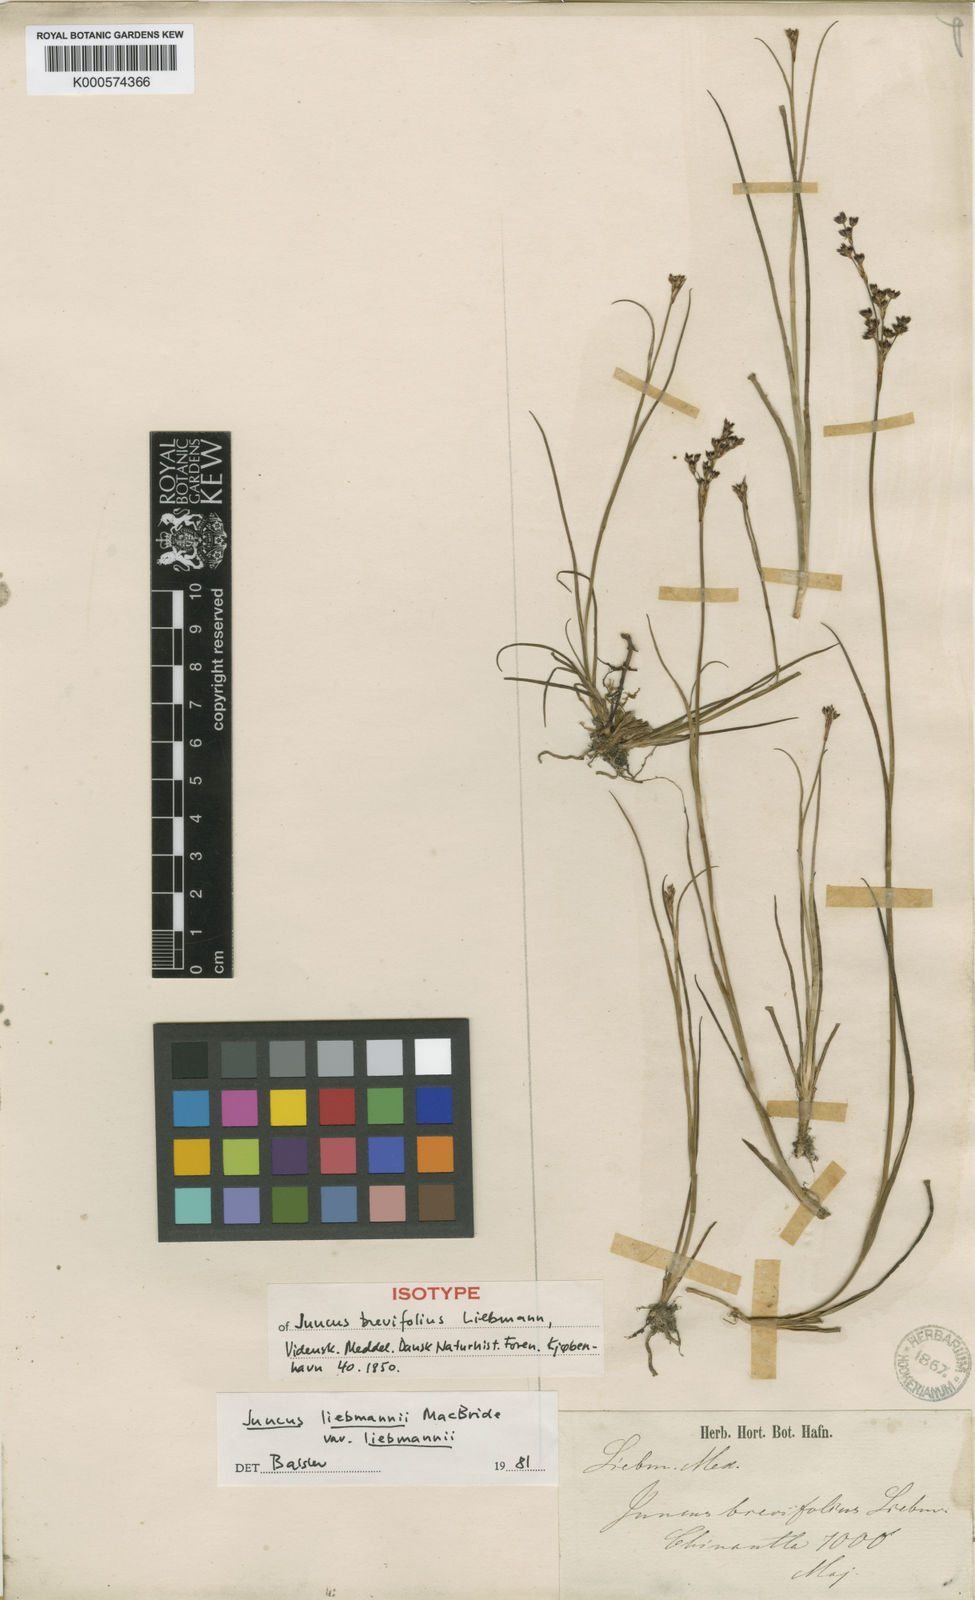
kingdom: Plantae
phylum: Tracheophyta
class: Liliopsida
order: Poales
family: Juncaceae
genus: Juncus
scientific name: Juncus liebmannii
